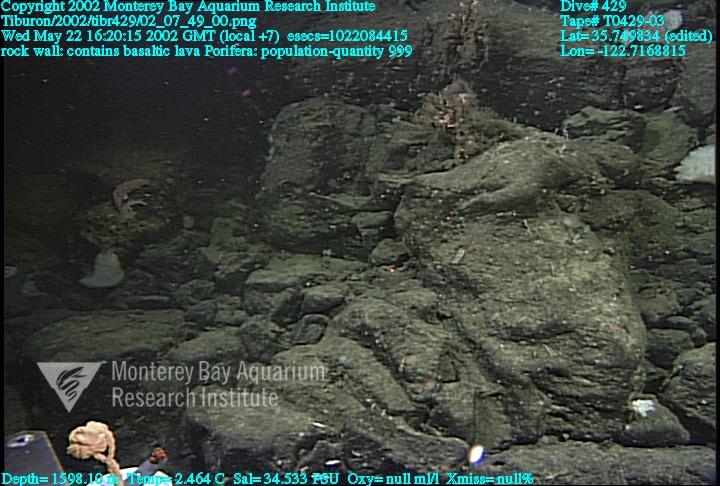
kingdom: Animalia
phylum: Porifera
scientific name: Porifera
